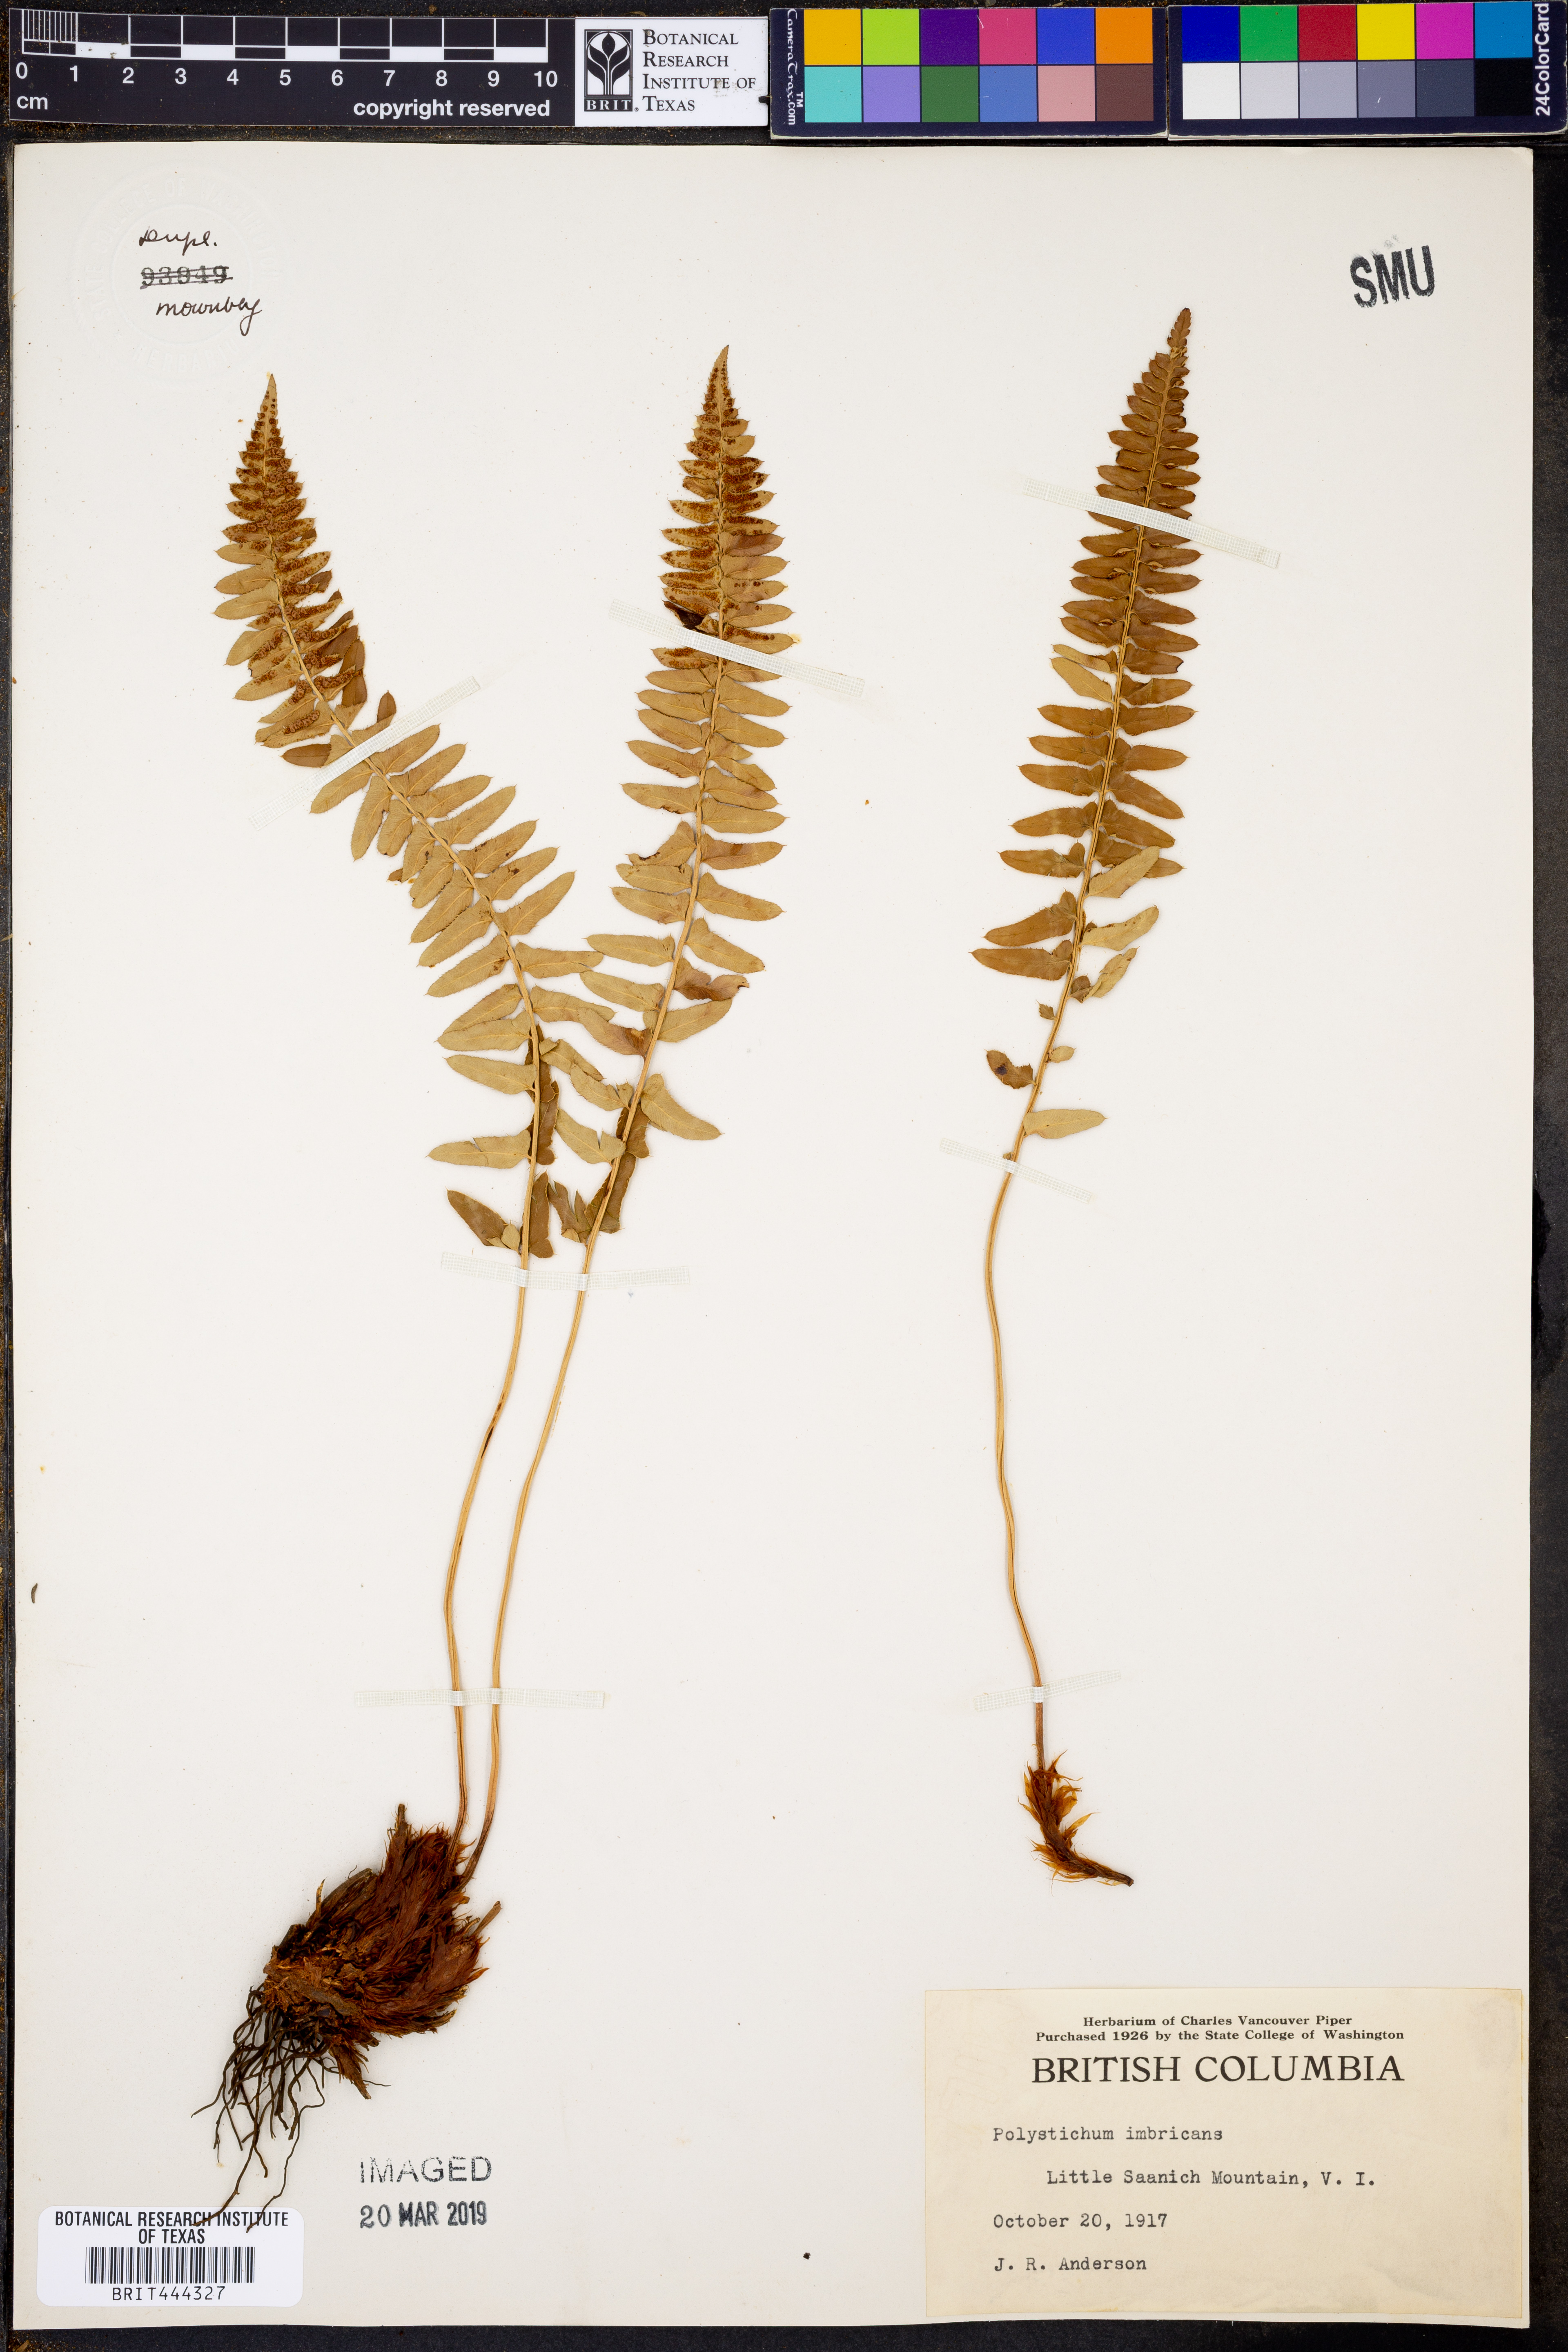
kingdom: Plantae
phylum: Tracheophyta
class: Polypodiopsida
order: Polypodiales
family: Dryopteridaceae
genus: Polystichum
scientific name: Polystichum imbricans
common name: Dwarf western sword fern
